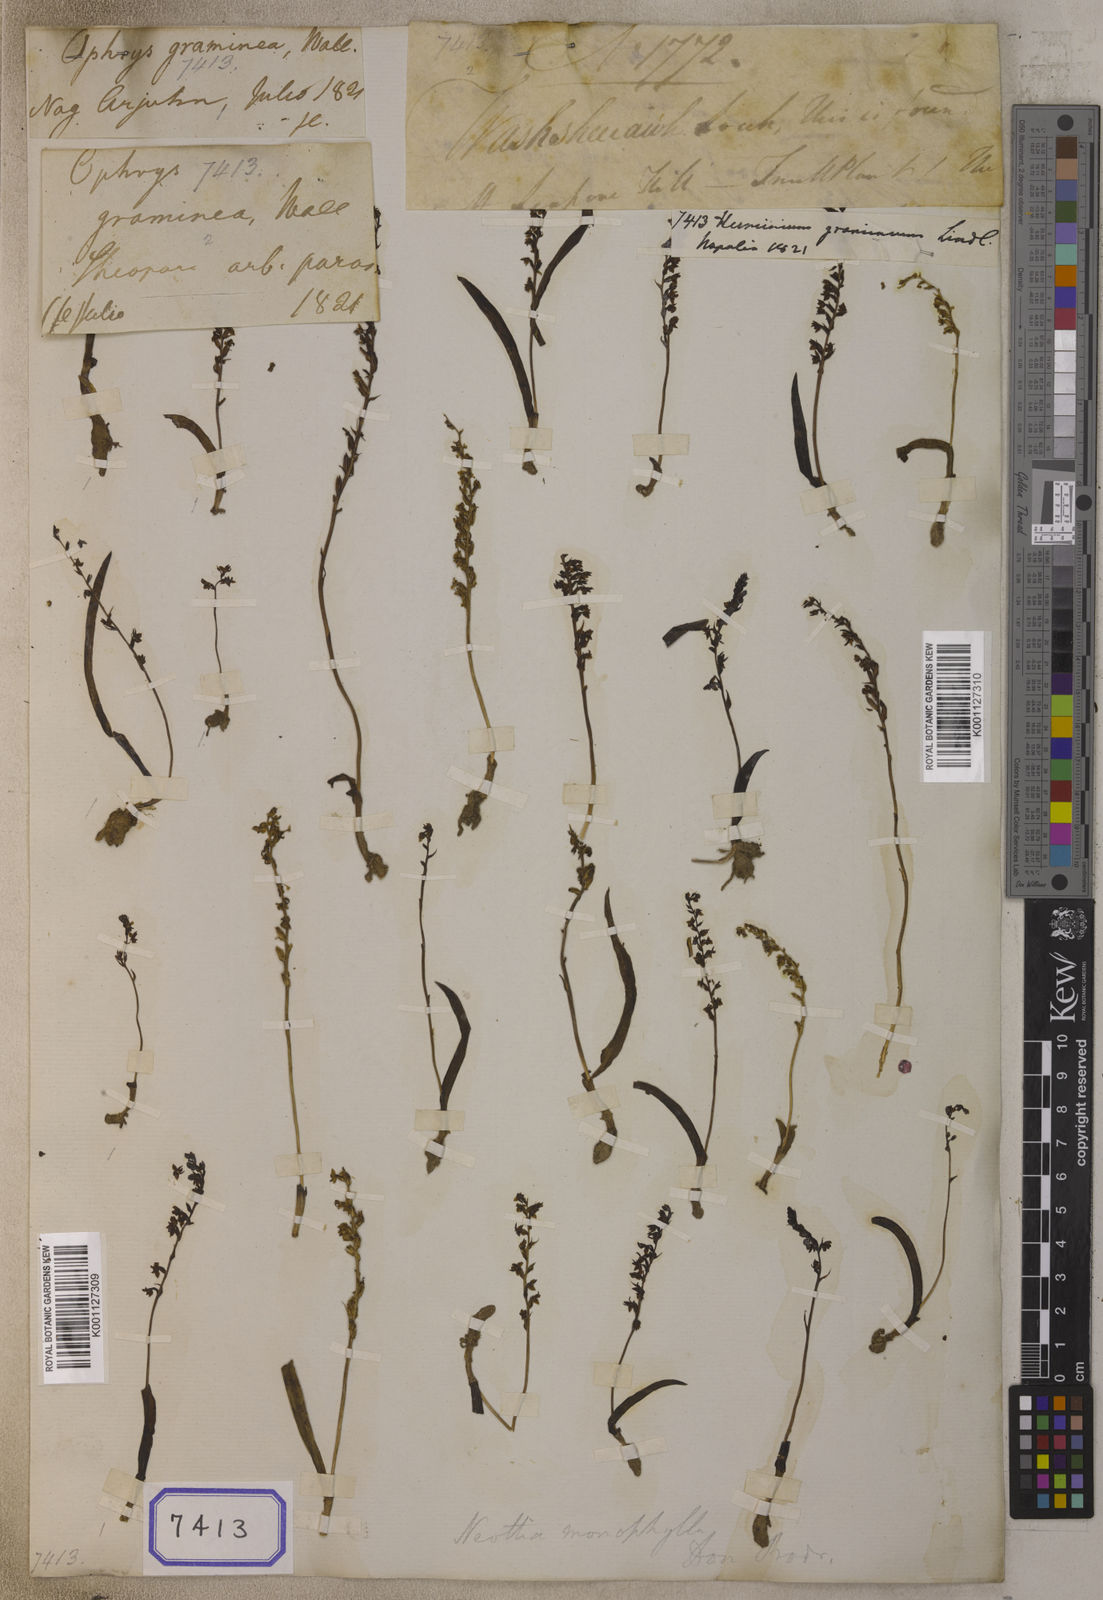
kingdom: Plantae
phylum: Tracheophyta
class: Liliopsida
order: Asparagales
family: Orchidaceae
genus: Herminium
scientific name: Herminium monophyllum
